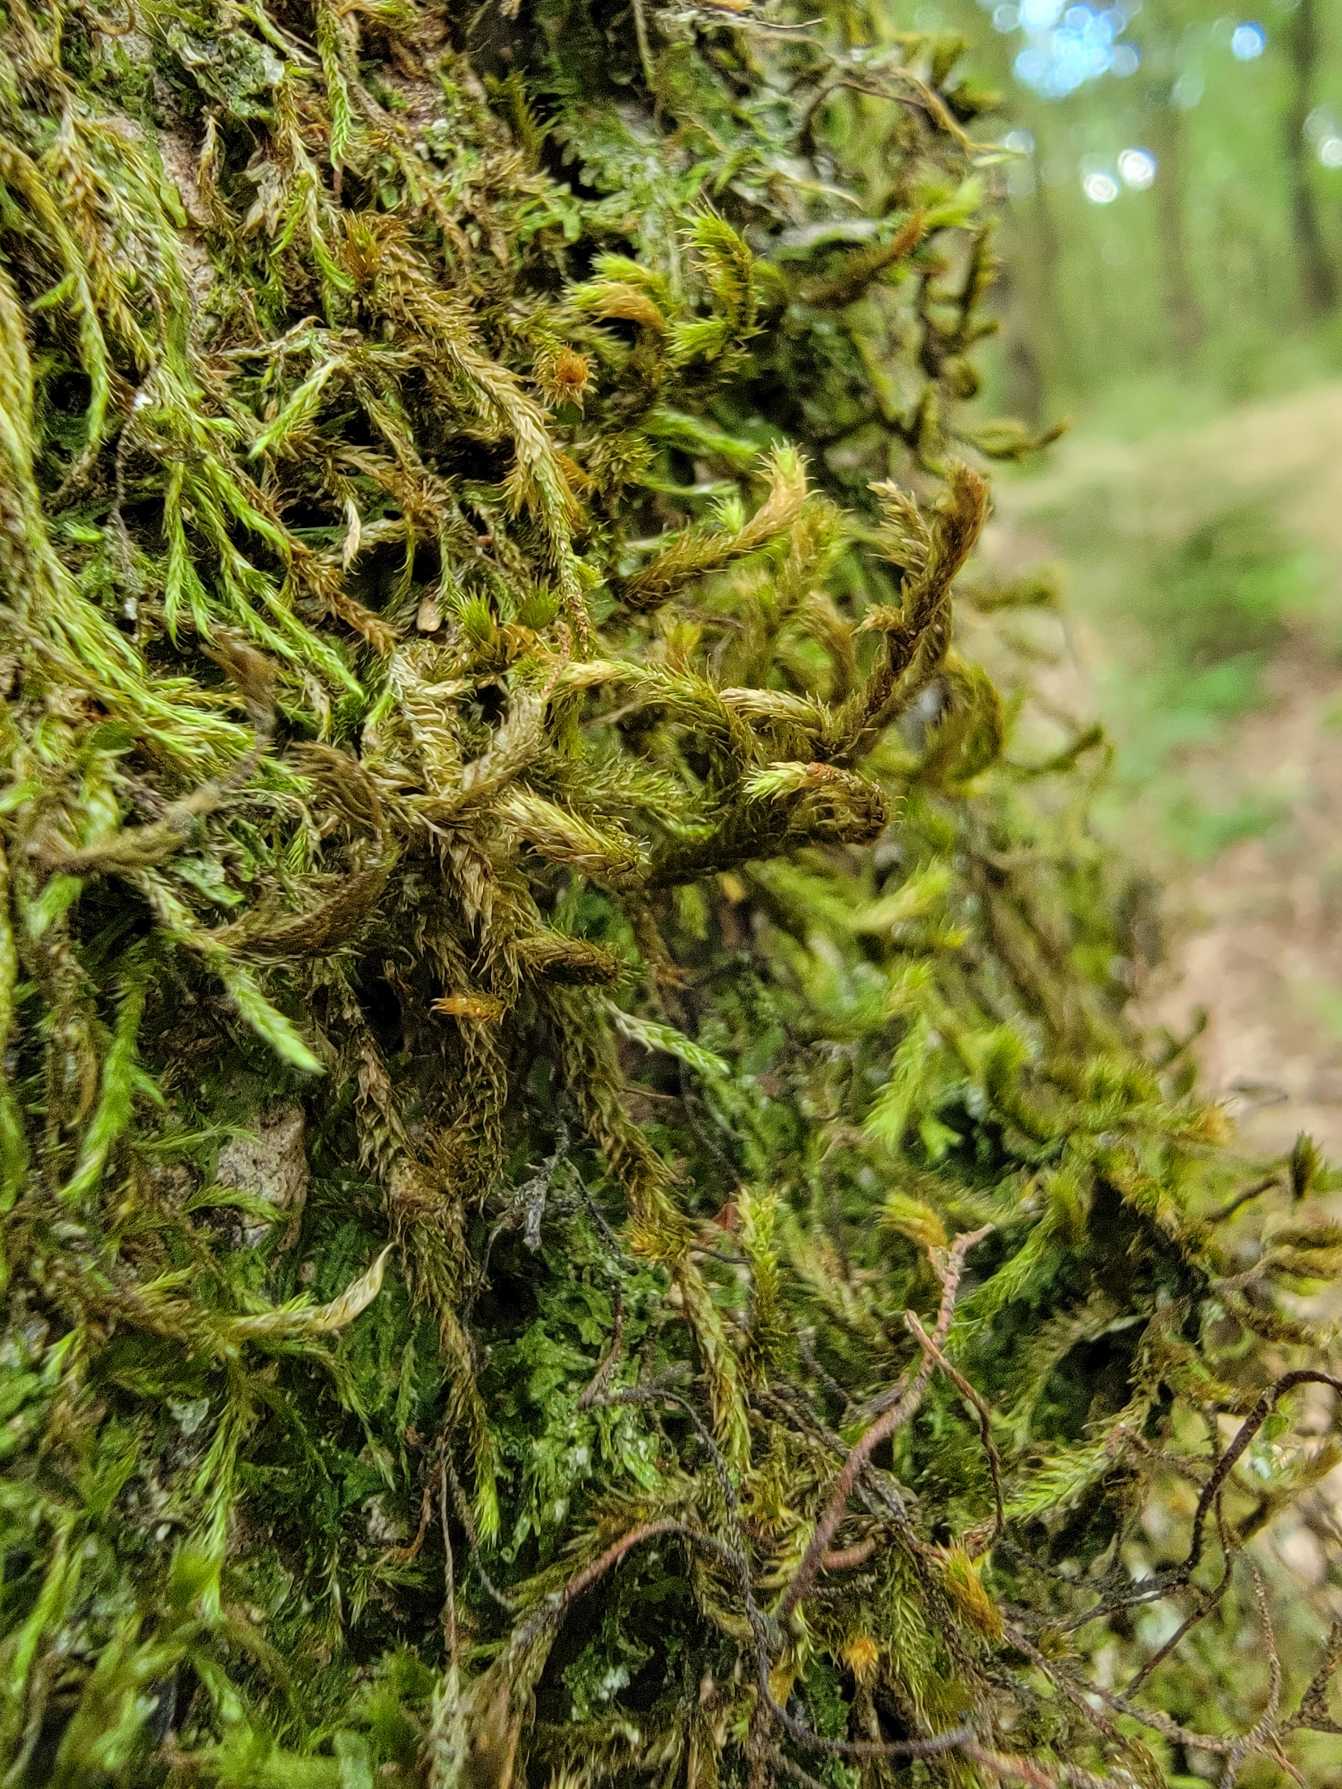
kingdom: Plantae
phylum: Bryophyta
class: Bryopsida
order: Hypnales
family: Antitrichiaceae
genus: Antitrichia
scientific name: Antitrichia curtipendula
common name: Åben krogtand
